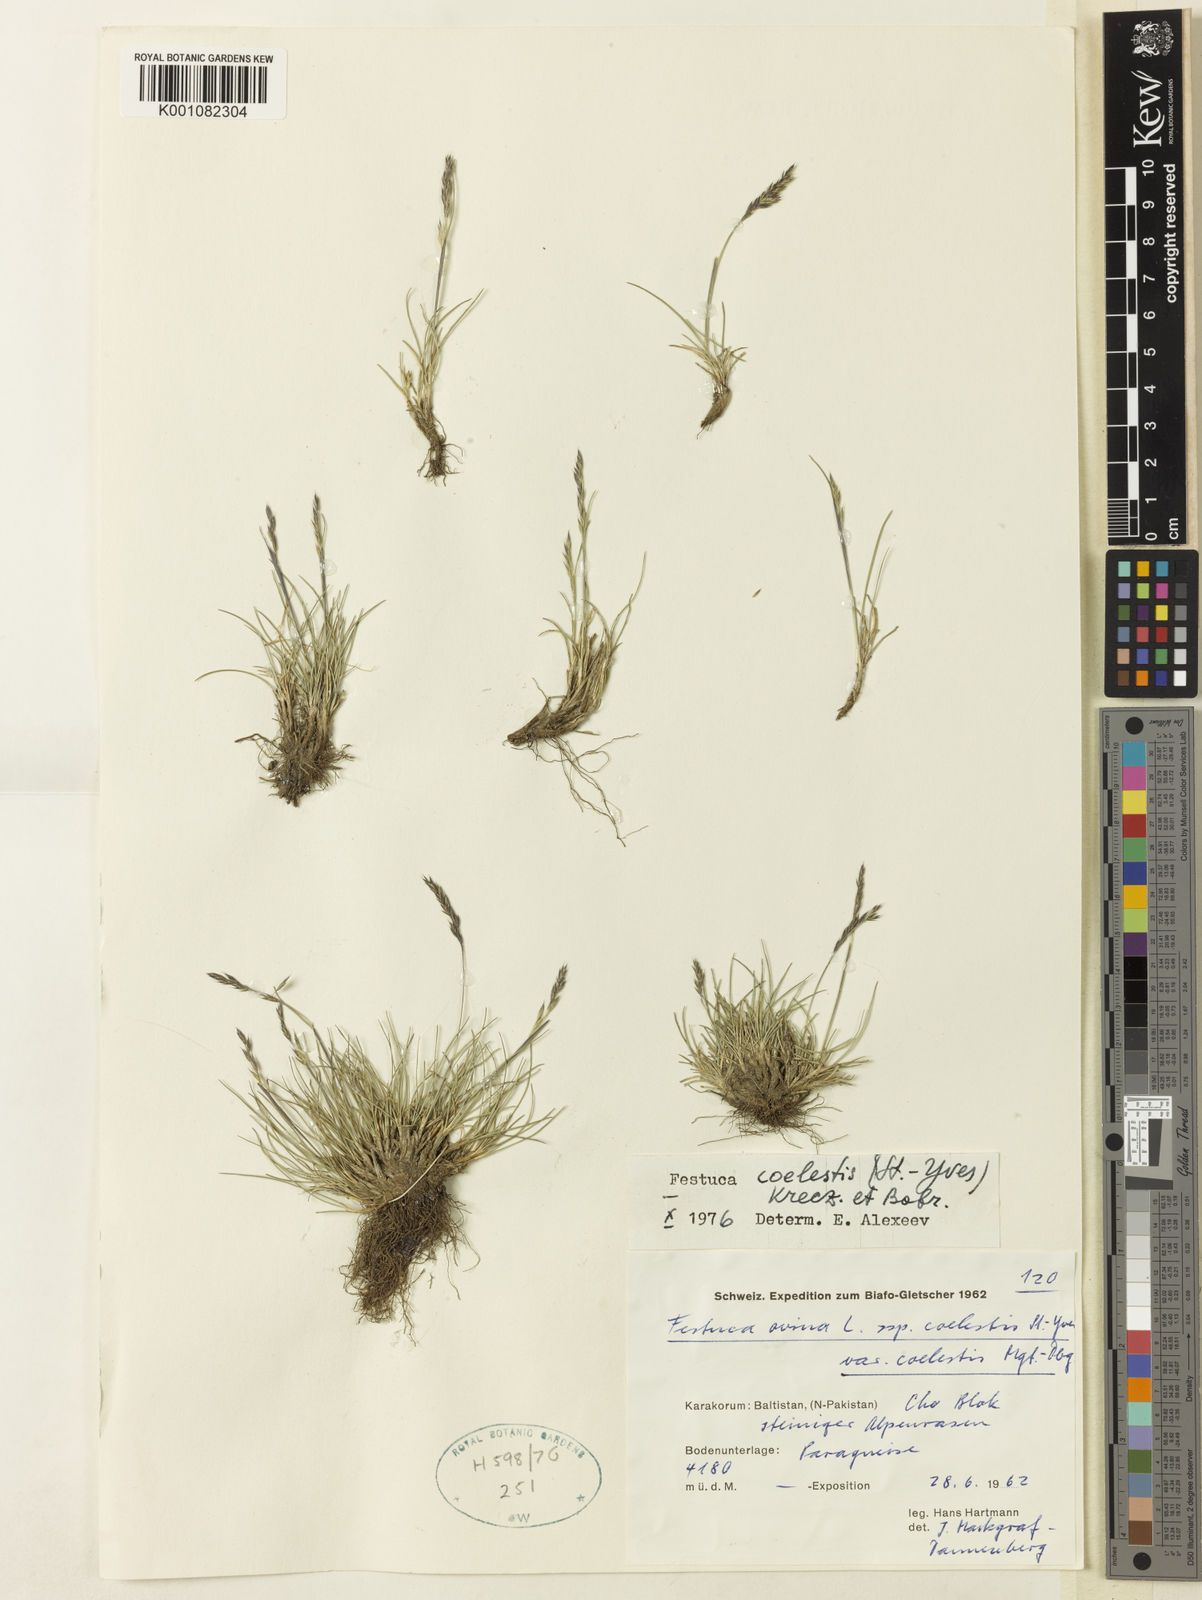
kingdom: Plantae
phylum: Tracheophyta
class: Liliopsida
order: Poales
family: Poaceae
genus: Festuca
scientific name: Festuca coelestis
